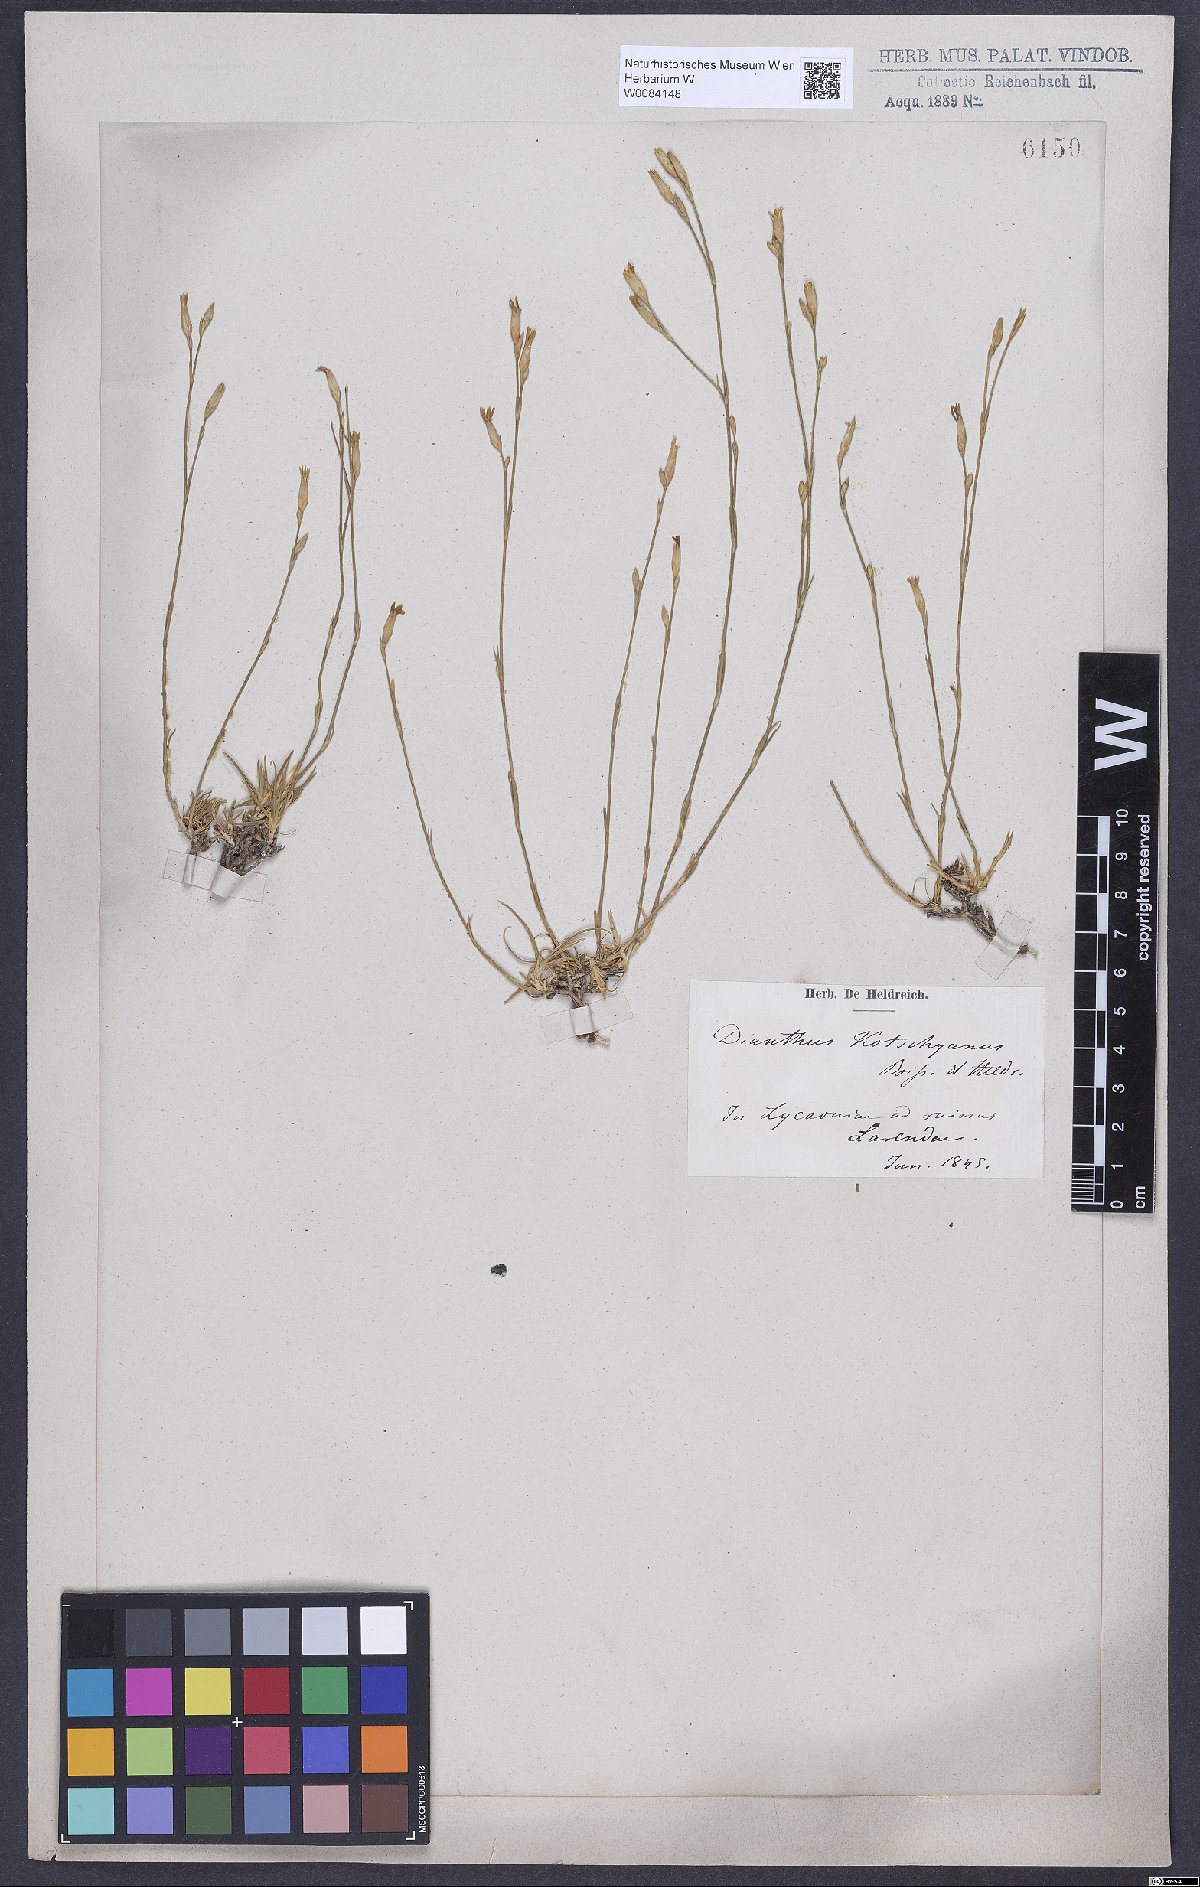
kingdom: Plantae
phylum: Tracheophyta
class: Magnoliopsida
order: Caryophyllales
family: Caryophyllaceae
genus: Dianthus
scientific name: Dianthus anatolicus
